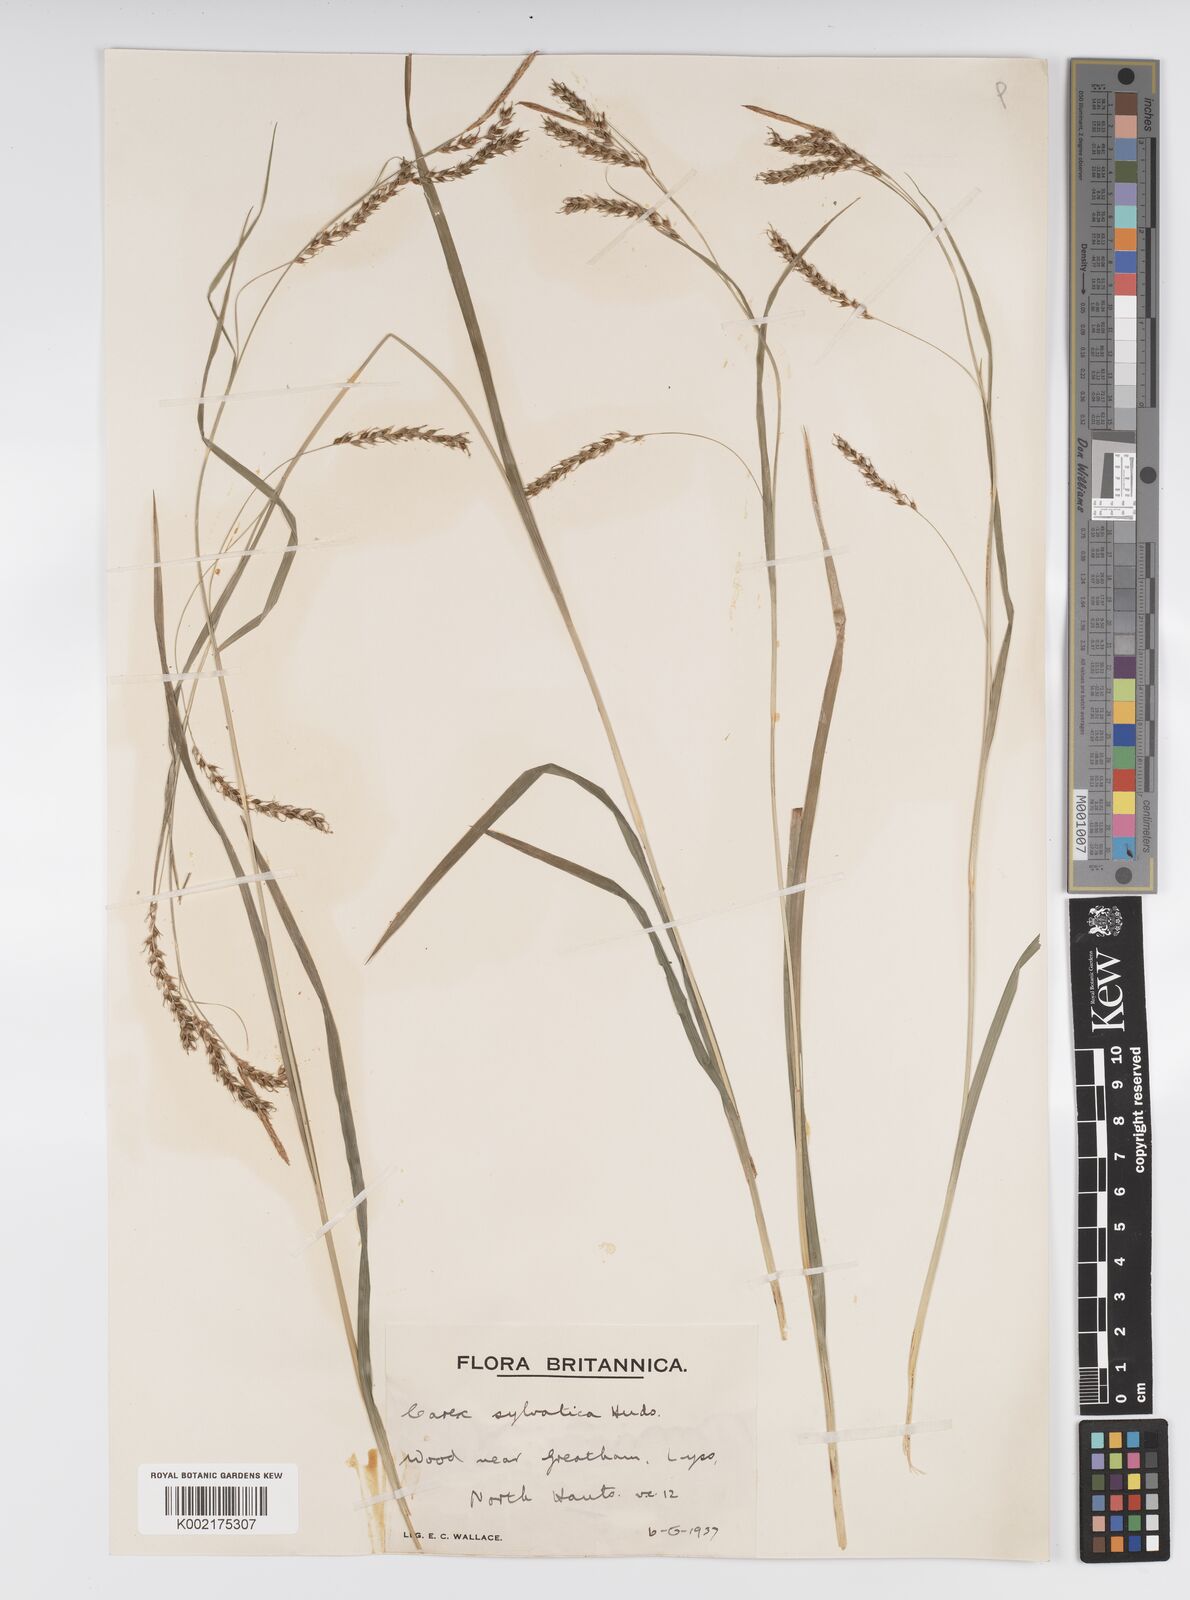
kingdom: Plantae
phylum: Tracheophyta
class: Liliopsida
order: Poales
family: Cyperaceae
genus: Carex
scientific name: Carex sylvatica
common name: Wood-sedge
